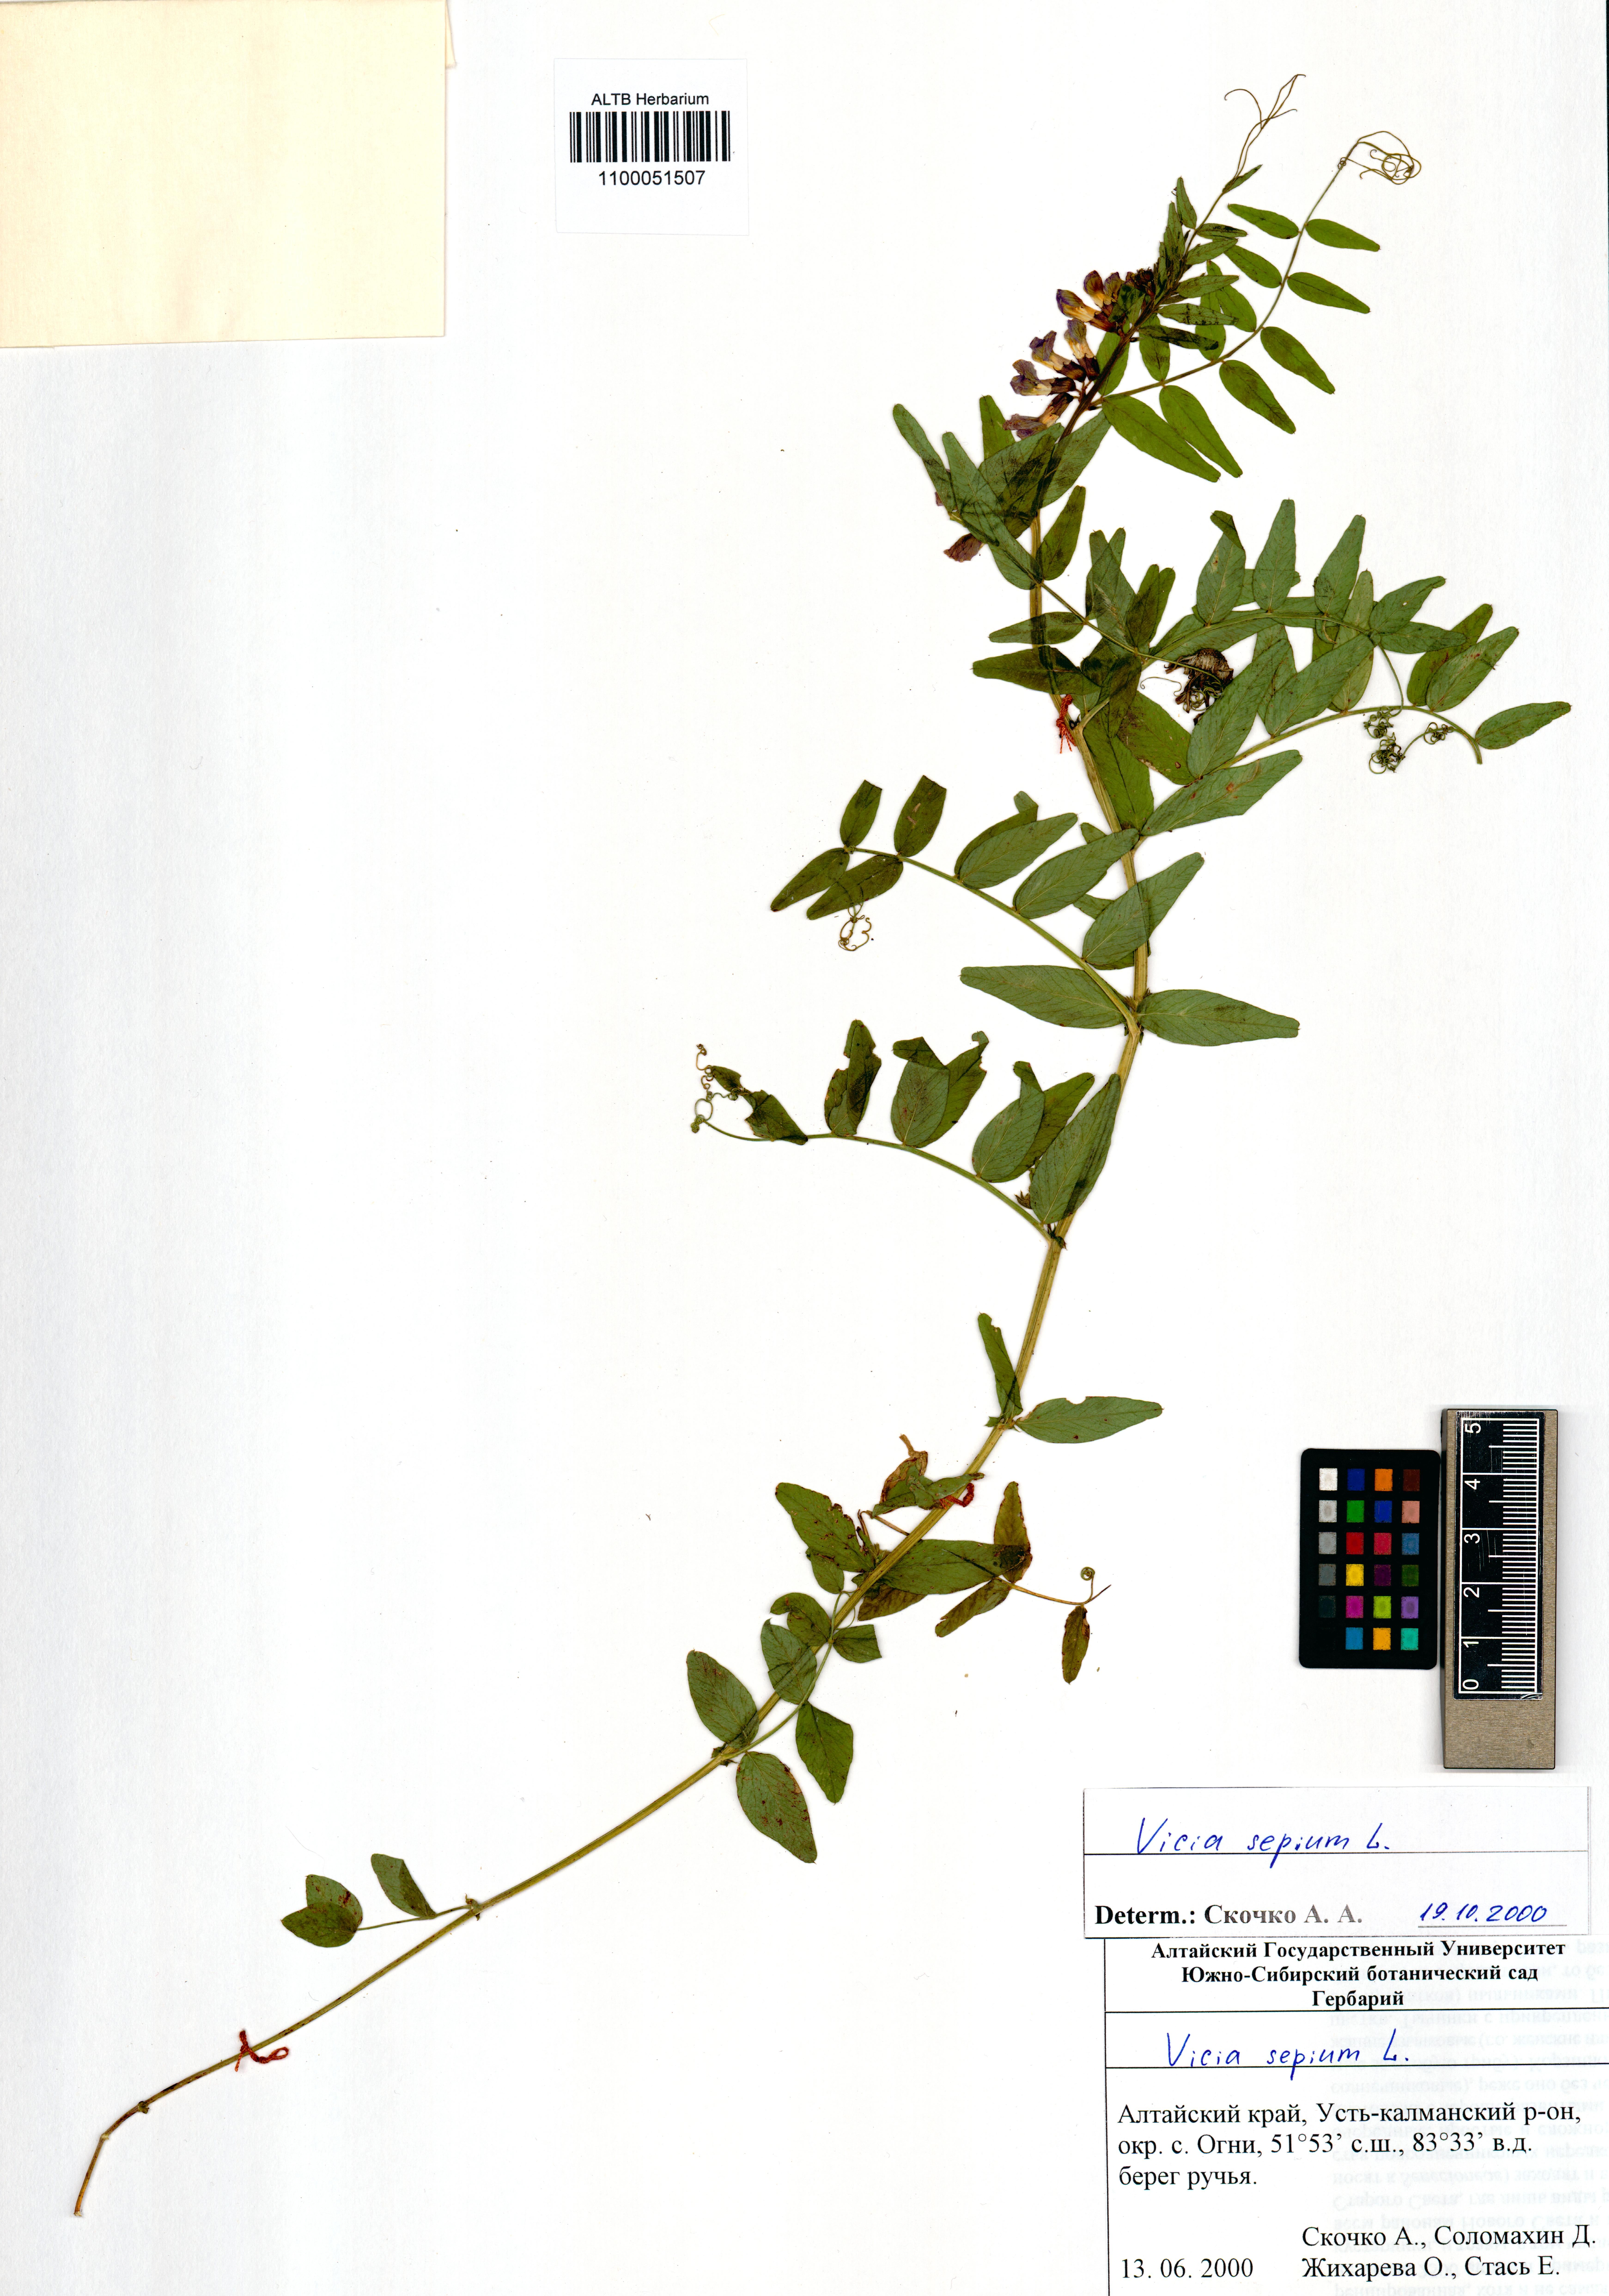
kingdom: Plantae
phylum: Tracheophyta
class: Magnoliopsida
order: Fabales
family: Fabaceae
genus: Vicia
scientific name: Vicia sepium
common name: Bush vetch
